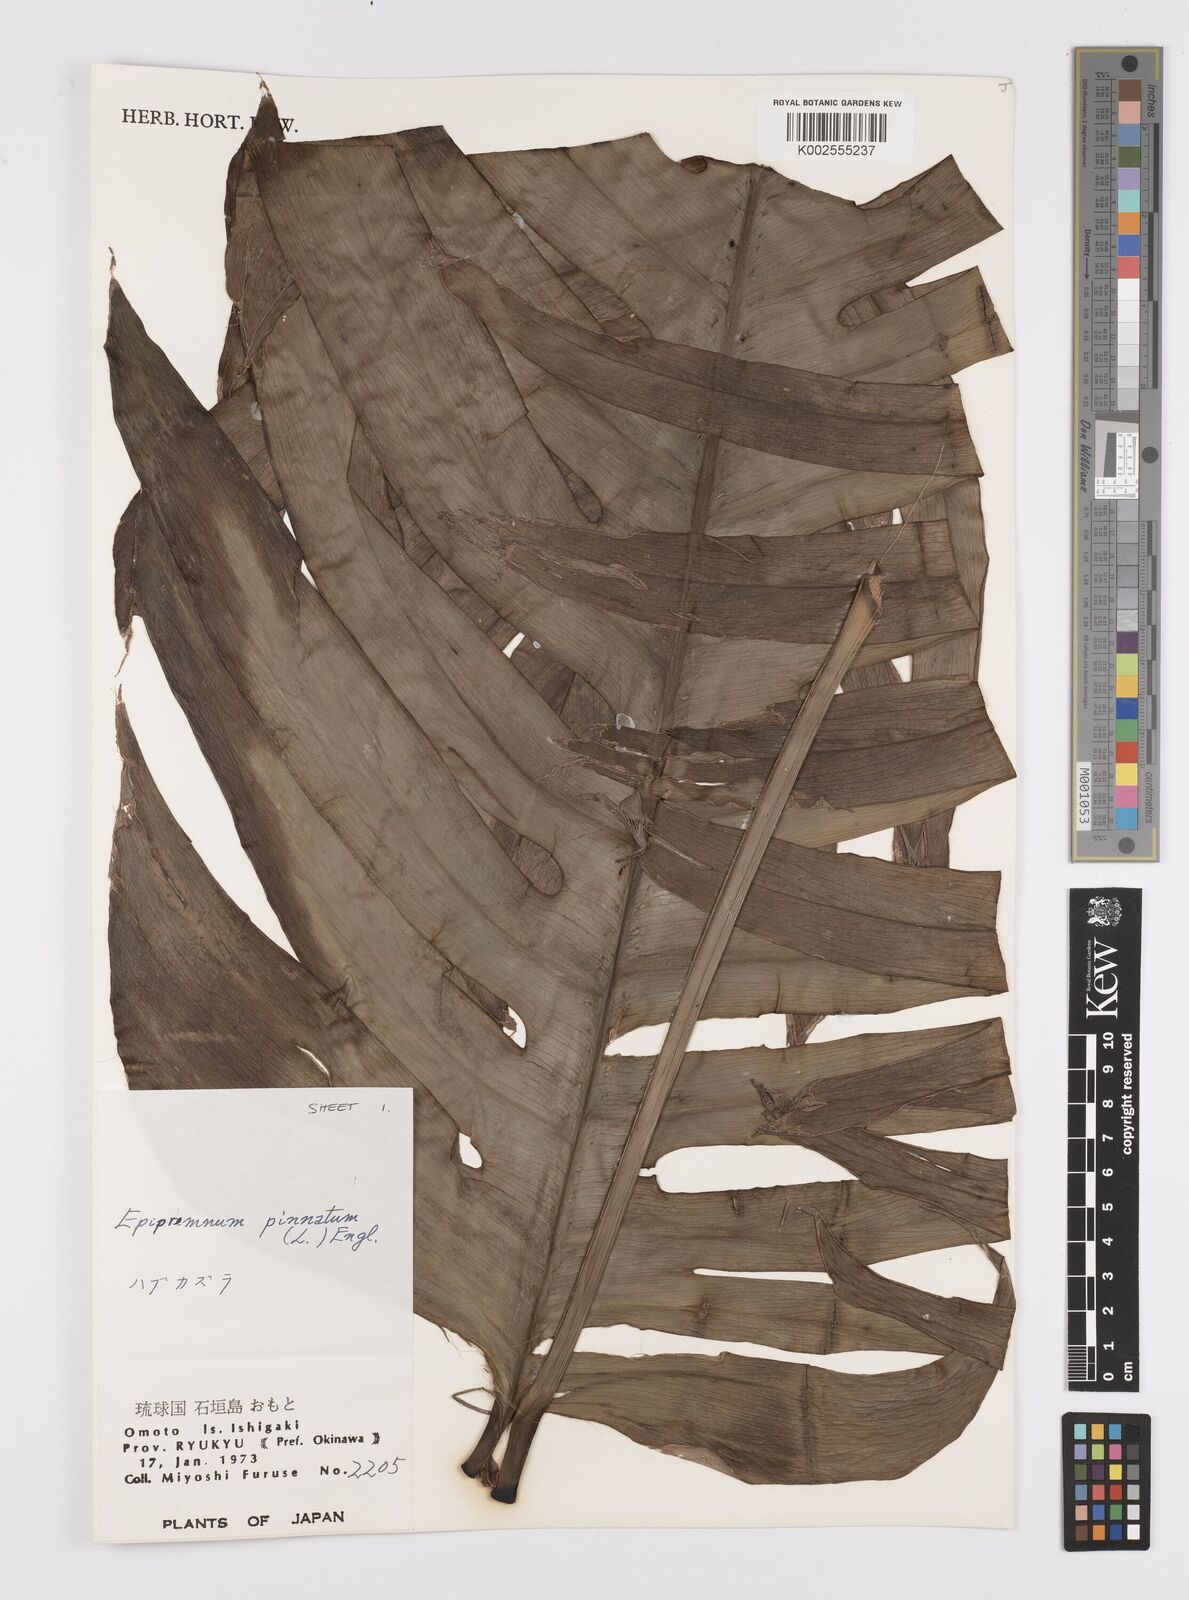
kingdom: Plantae
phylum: Tracheophyta
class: Liliopsida
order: Alismatales
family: Araceae
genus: Epipremnum
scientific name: Epipremnum pinnatum
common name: Centipede tongavine
